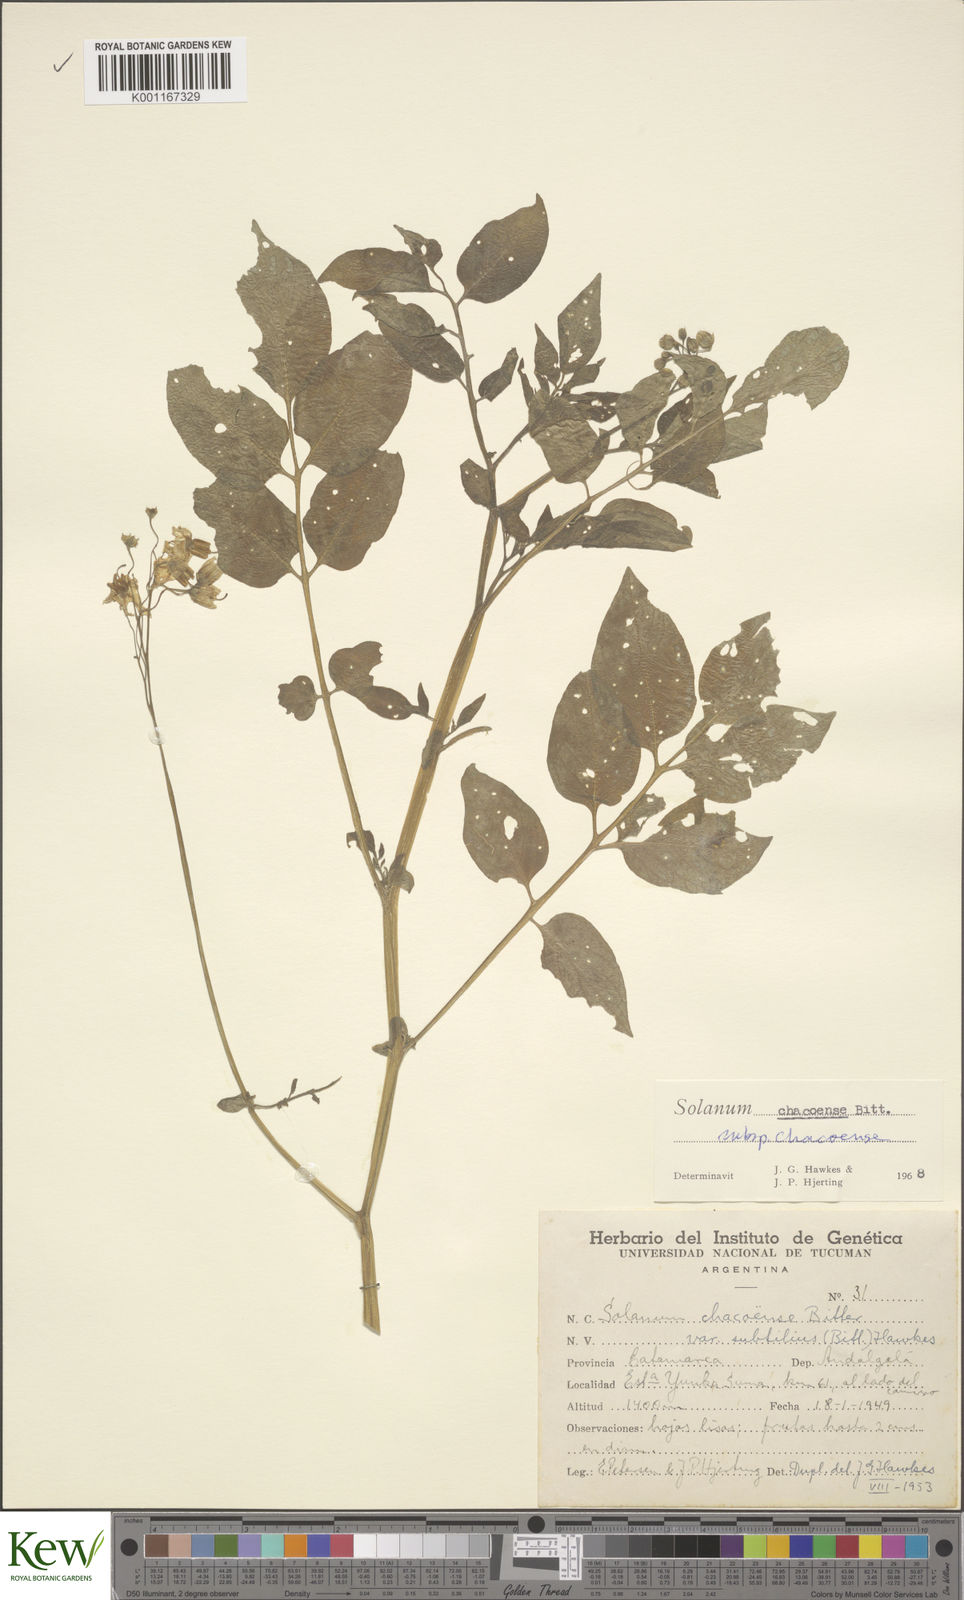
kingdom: Plantae
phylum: Tracheophyta
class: Magnoliopsida
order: Solanales
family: Solanaceae
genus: Solanum
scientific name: Solanum chacoense
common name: Chaco potato
